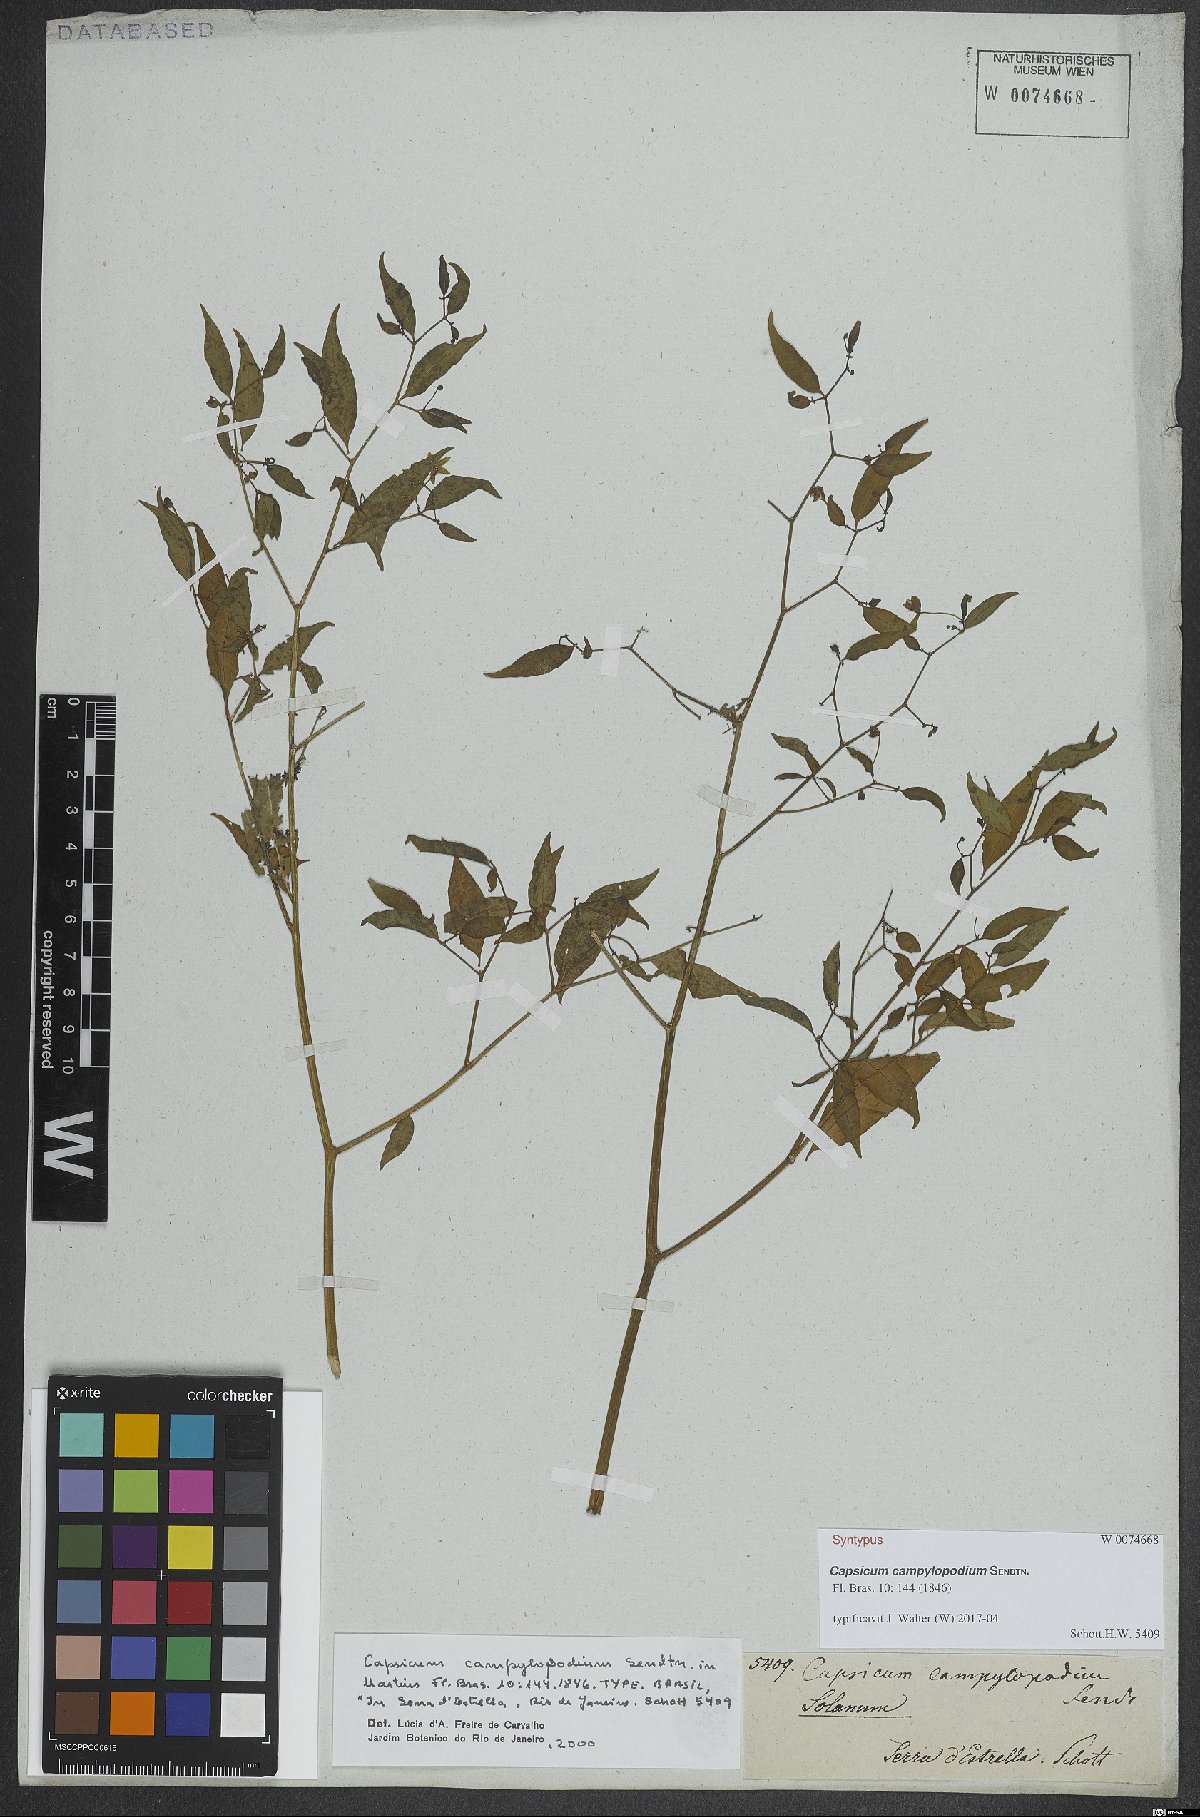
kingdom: Plantae
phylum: Tracheophyta
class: Magnoliopsida
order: Solanales
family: Solanaceae
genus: Capsicum
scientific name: Capsicum campylopodium
